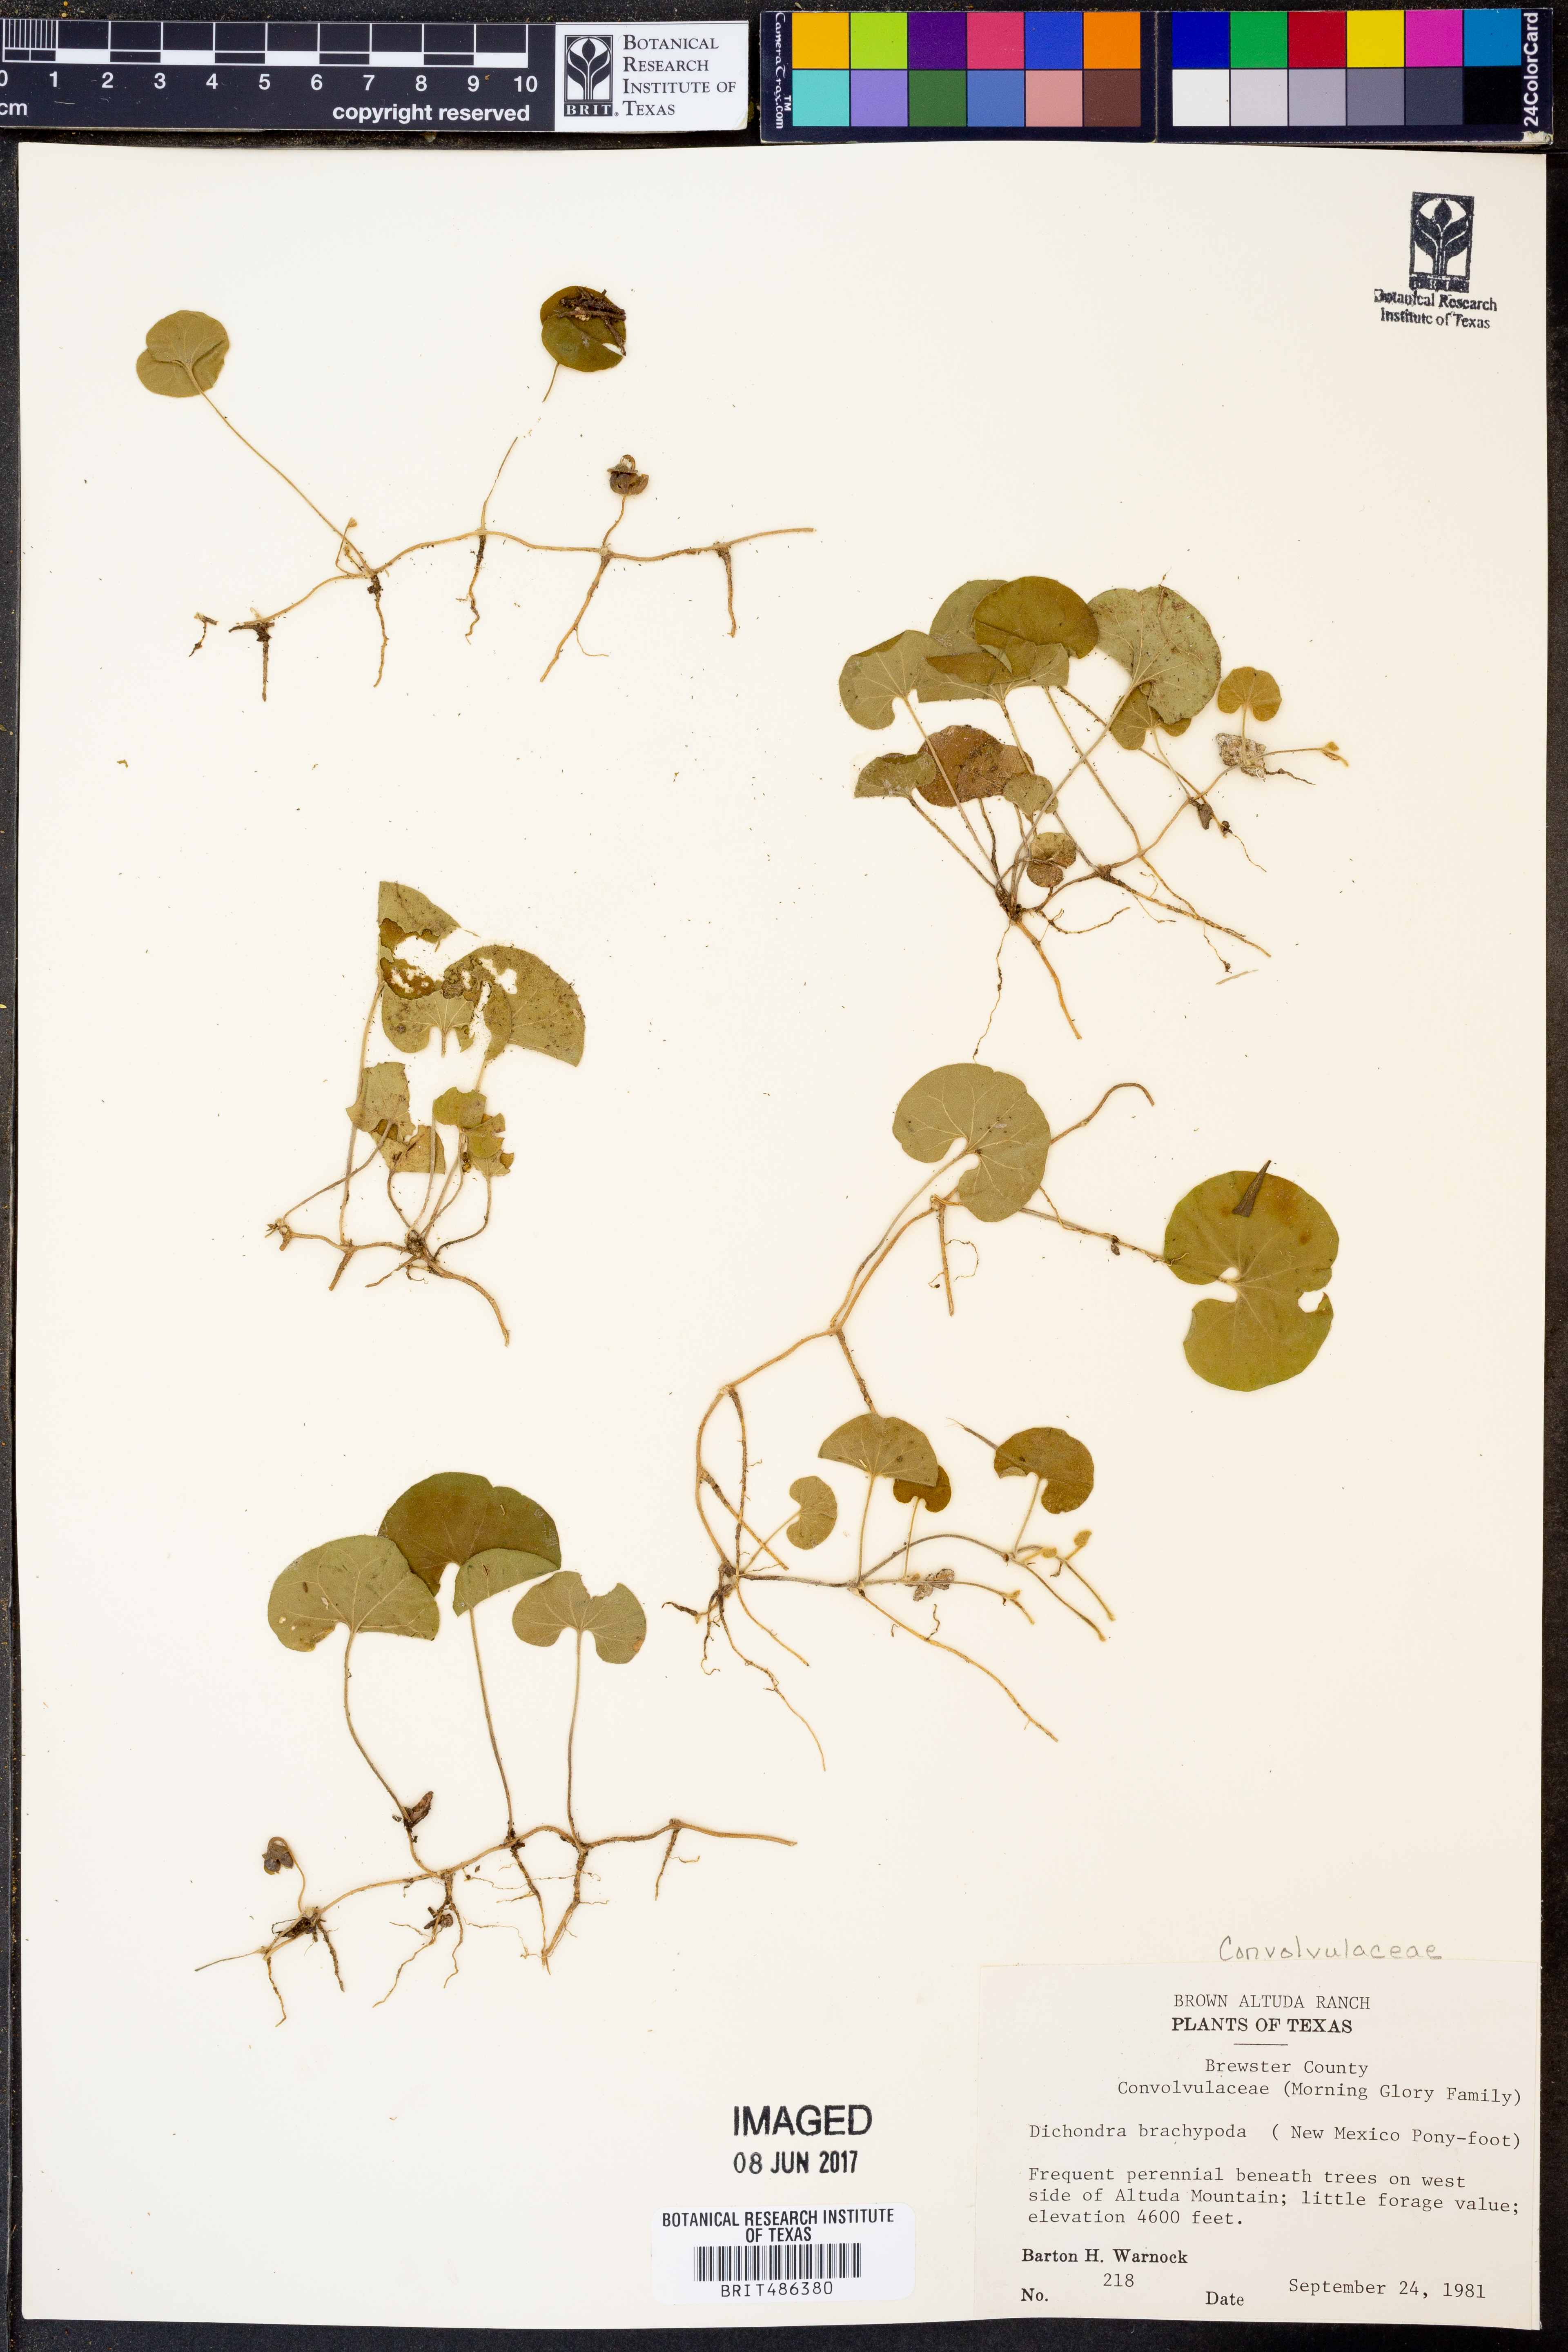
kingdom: Plantae
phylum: Tracheophyta
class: Magnoliopsida
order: Solanales
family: Convolvulaceae
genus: Dichondra
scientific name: Dichondra brachypoda
